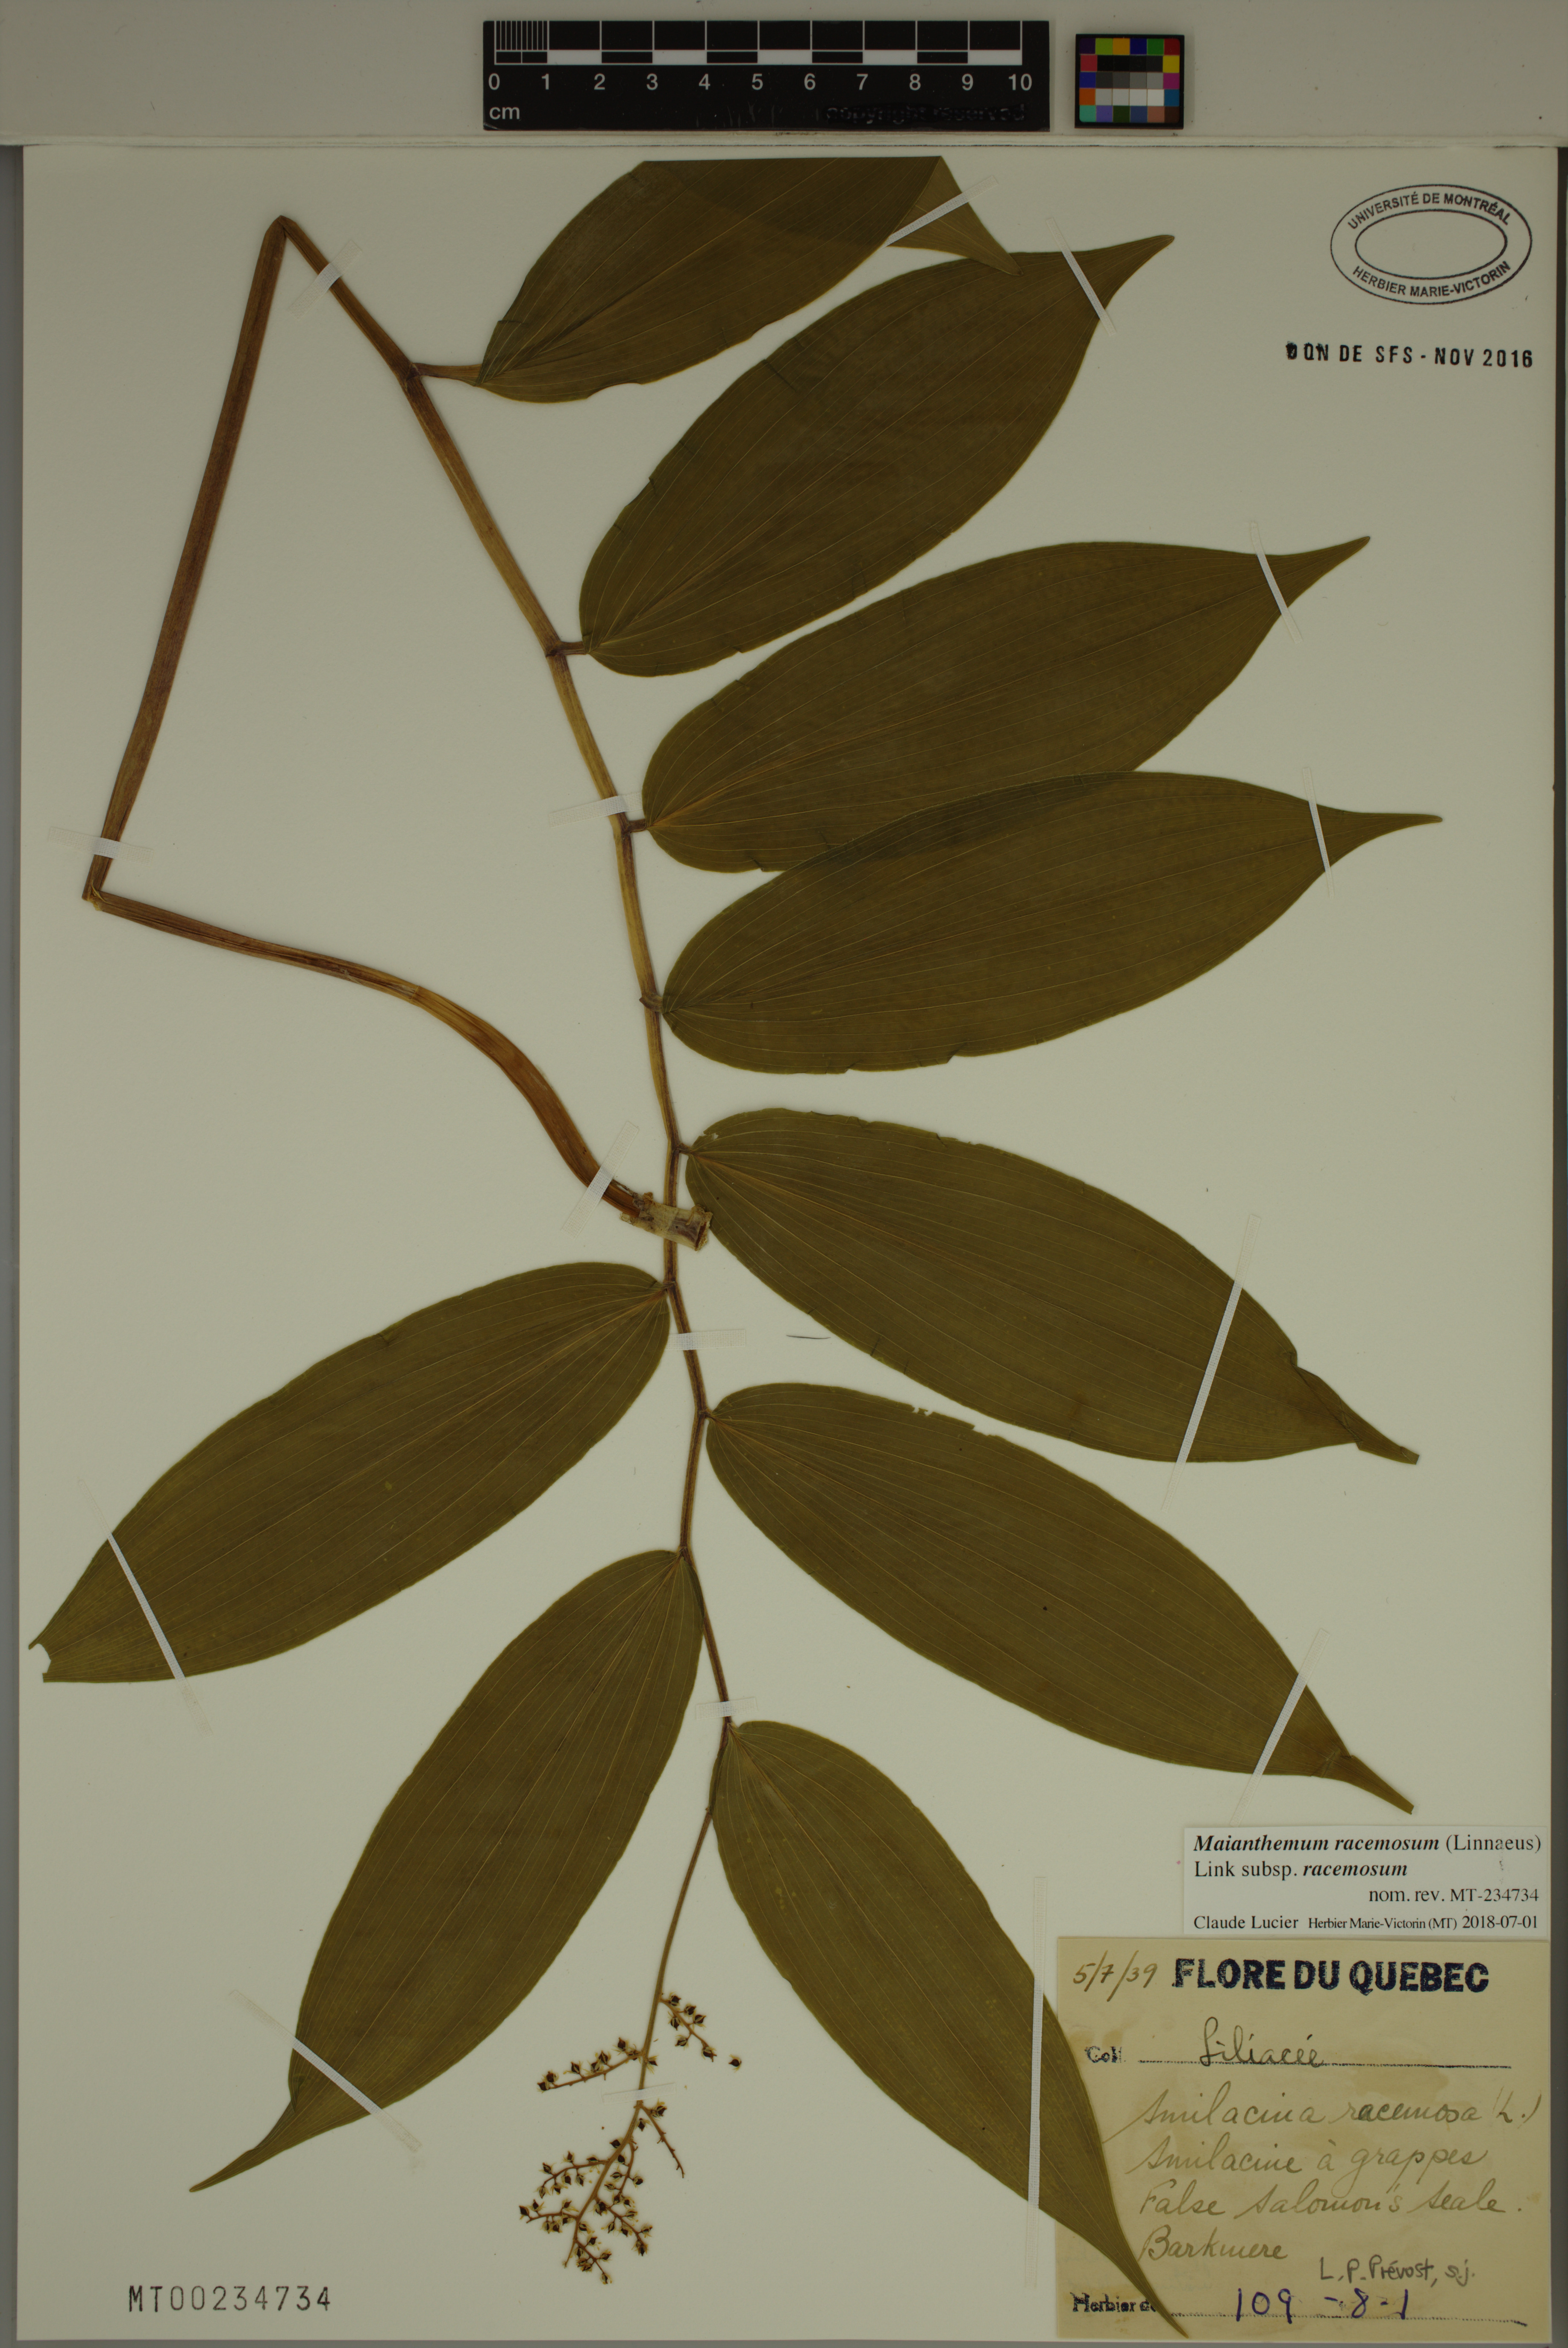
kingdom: Plantae
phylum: Tracheophyta
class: Liliopsida
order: Asparagales
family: Asparagaceae
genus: Maianthemum
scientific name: Maianthemum racemosum
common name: False spikenard
